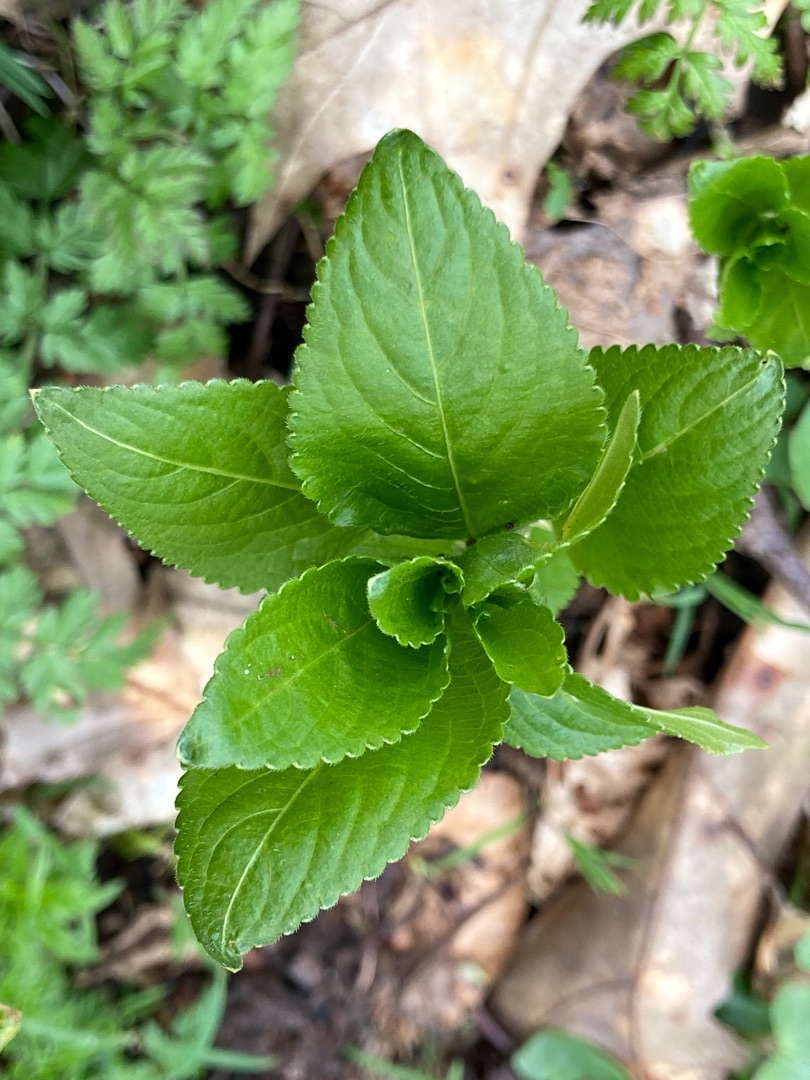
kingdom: Plantae
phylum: Tracheophyta
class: Magnoliopsida
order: Malpighiales
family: Euphorbiaceae
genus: Mercurialis
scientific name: Mercurialis perennis
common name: Almindelig bingelurt
